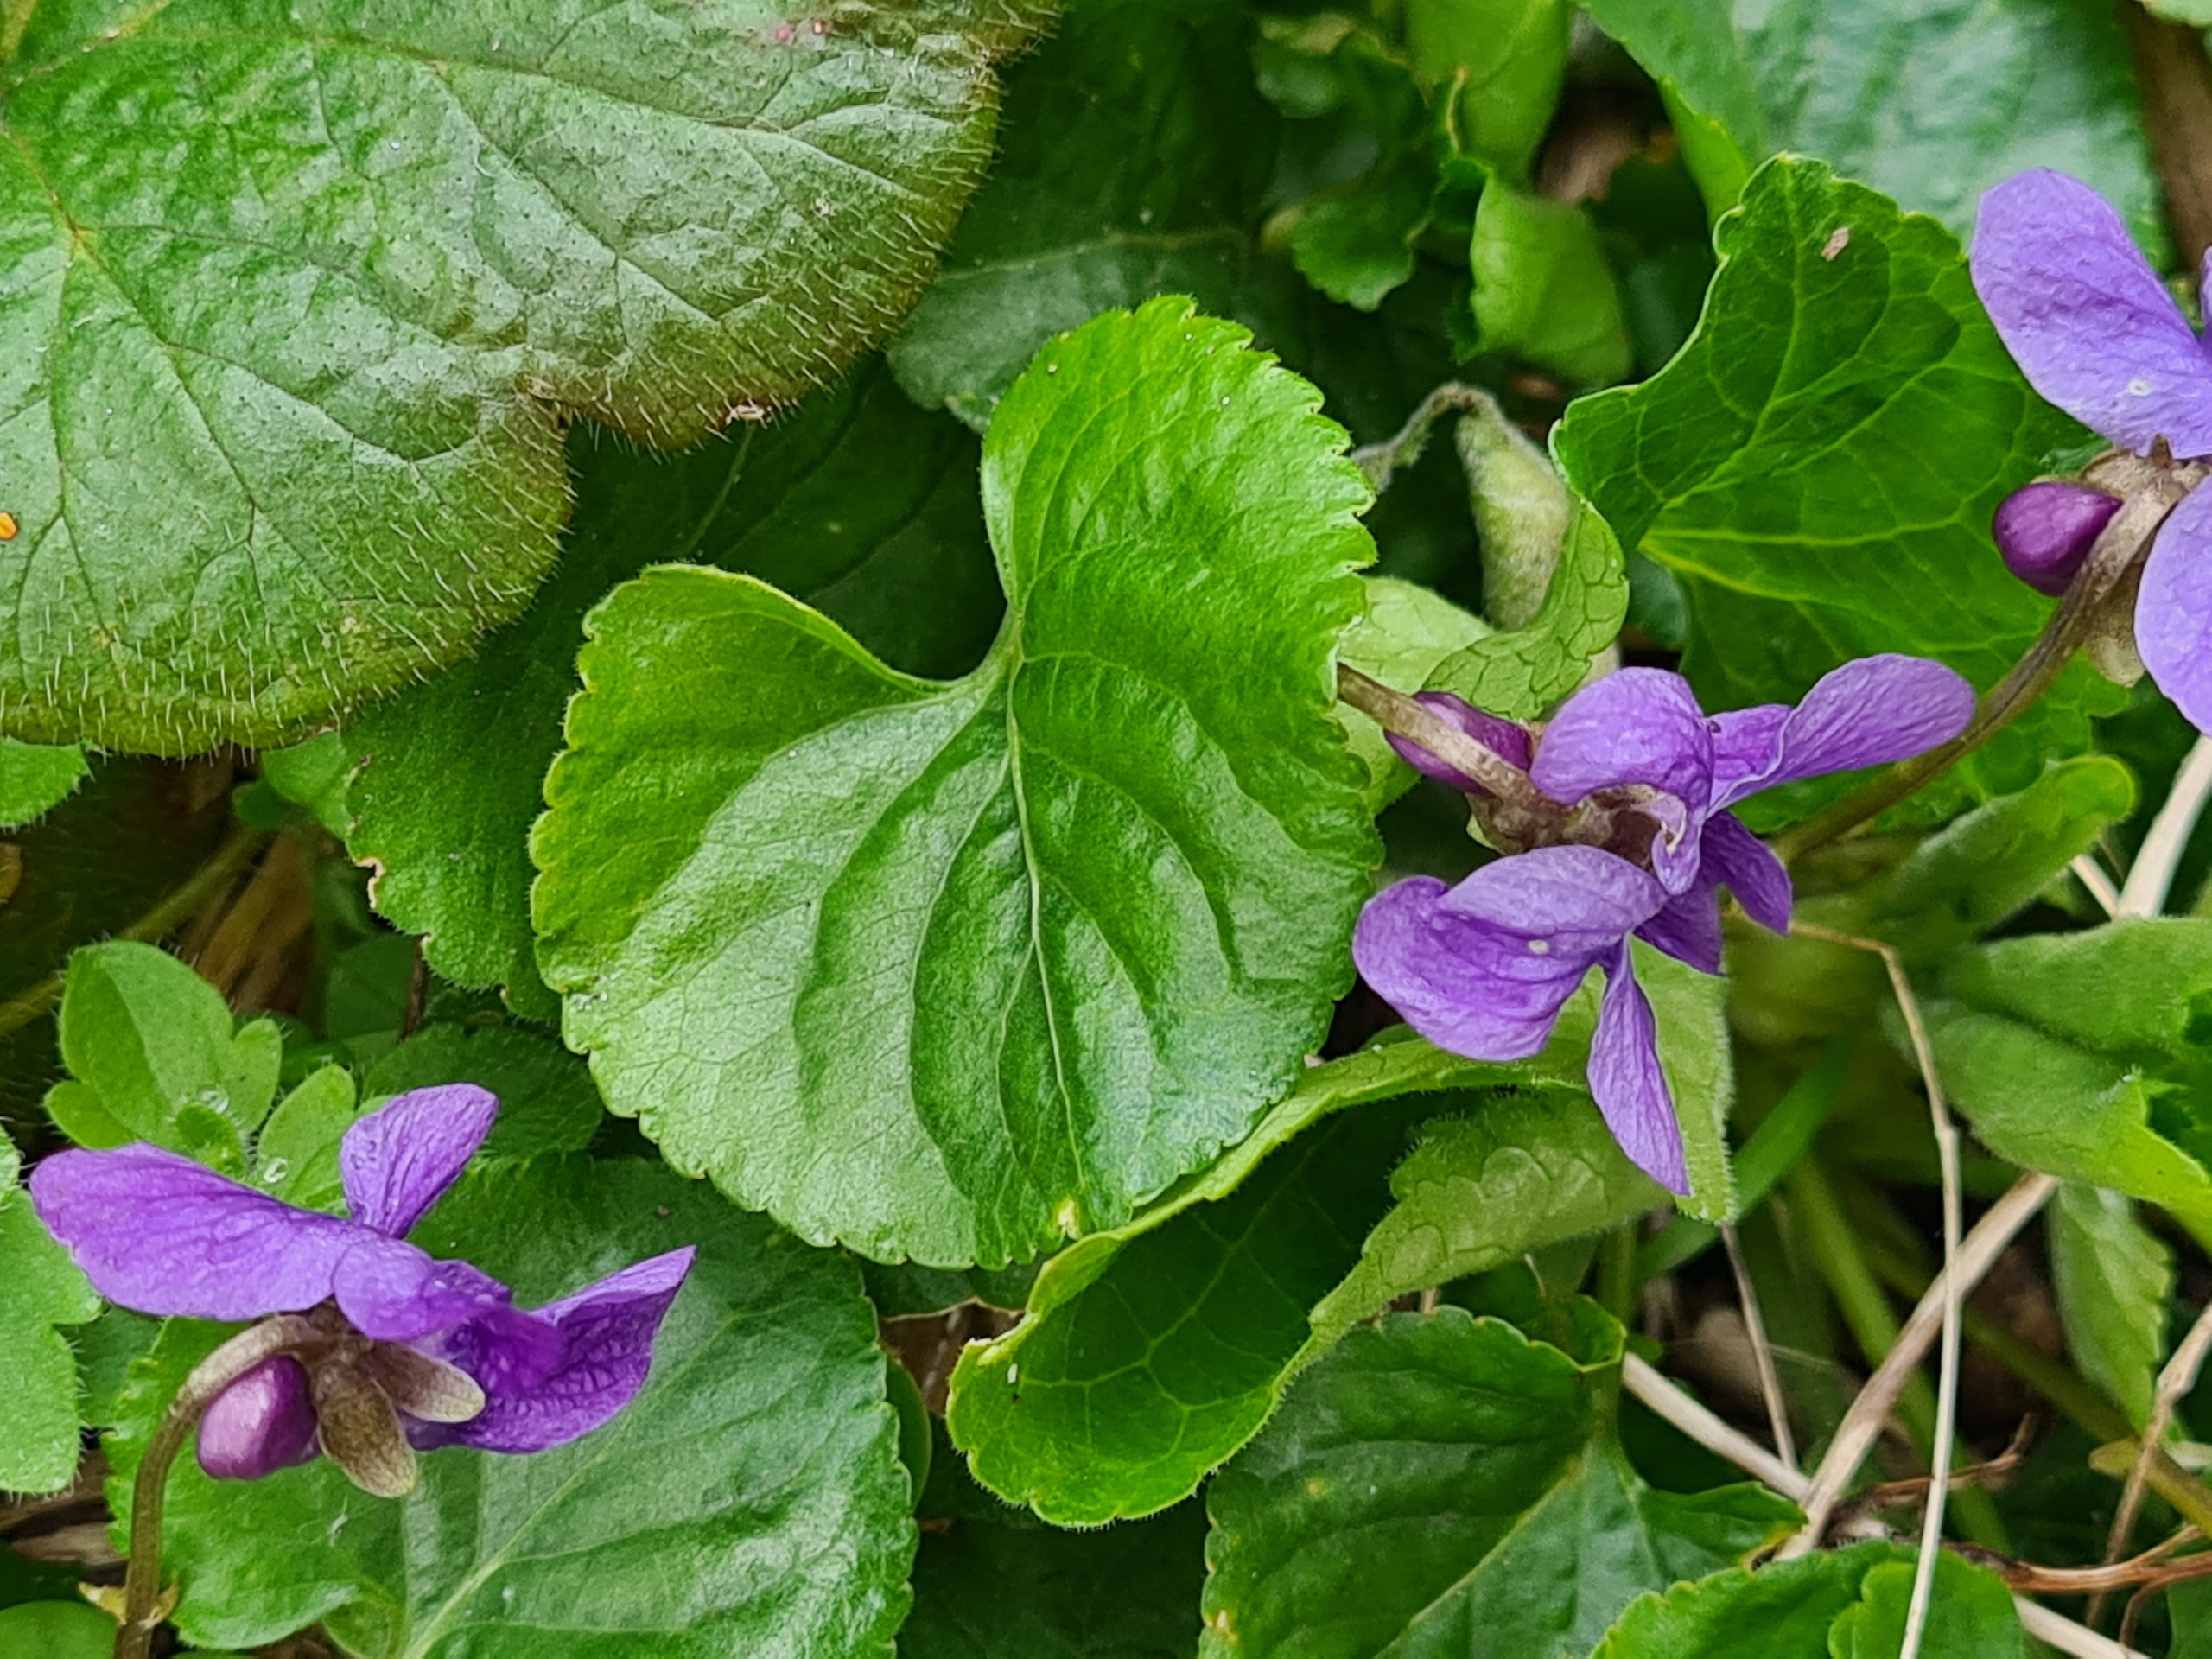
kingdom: Plantae
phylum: Tracheophyta
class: Magnoliopsida
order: Malpighiales
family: Violaceae
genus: Viola
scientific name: Viola odorata
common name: Marts-viol
